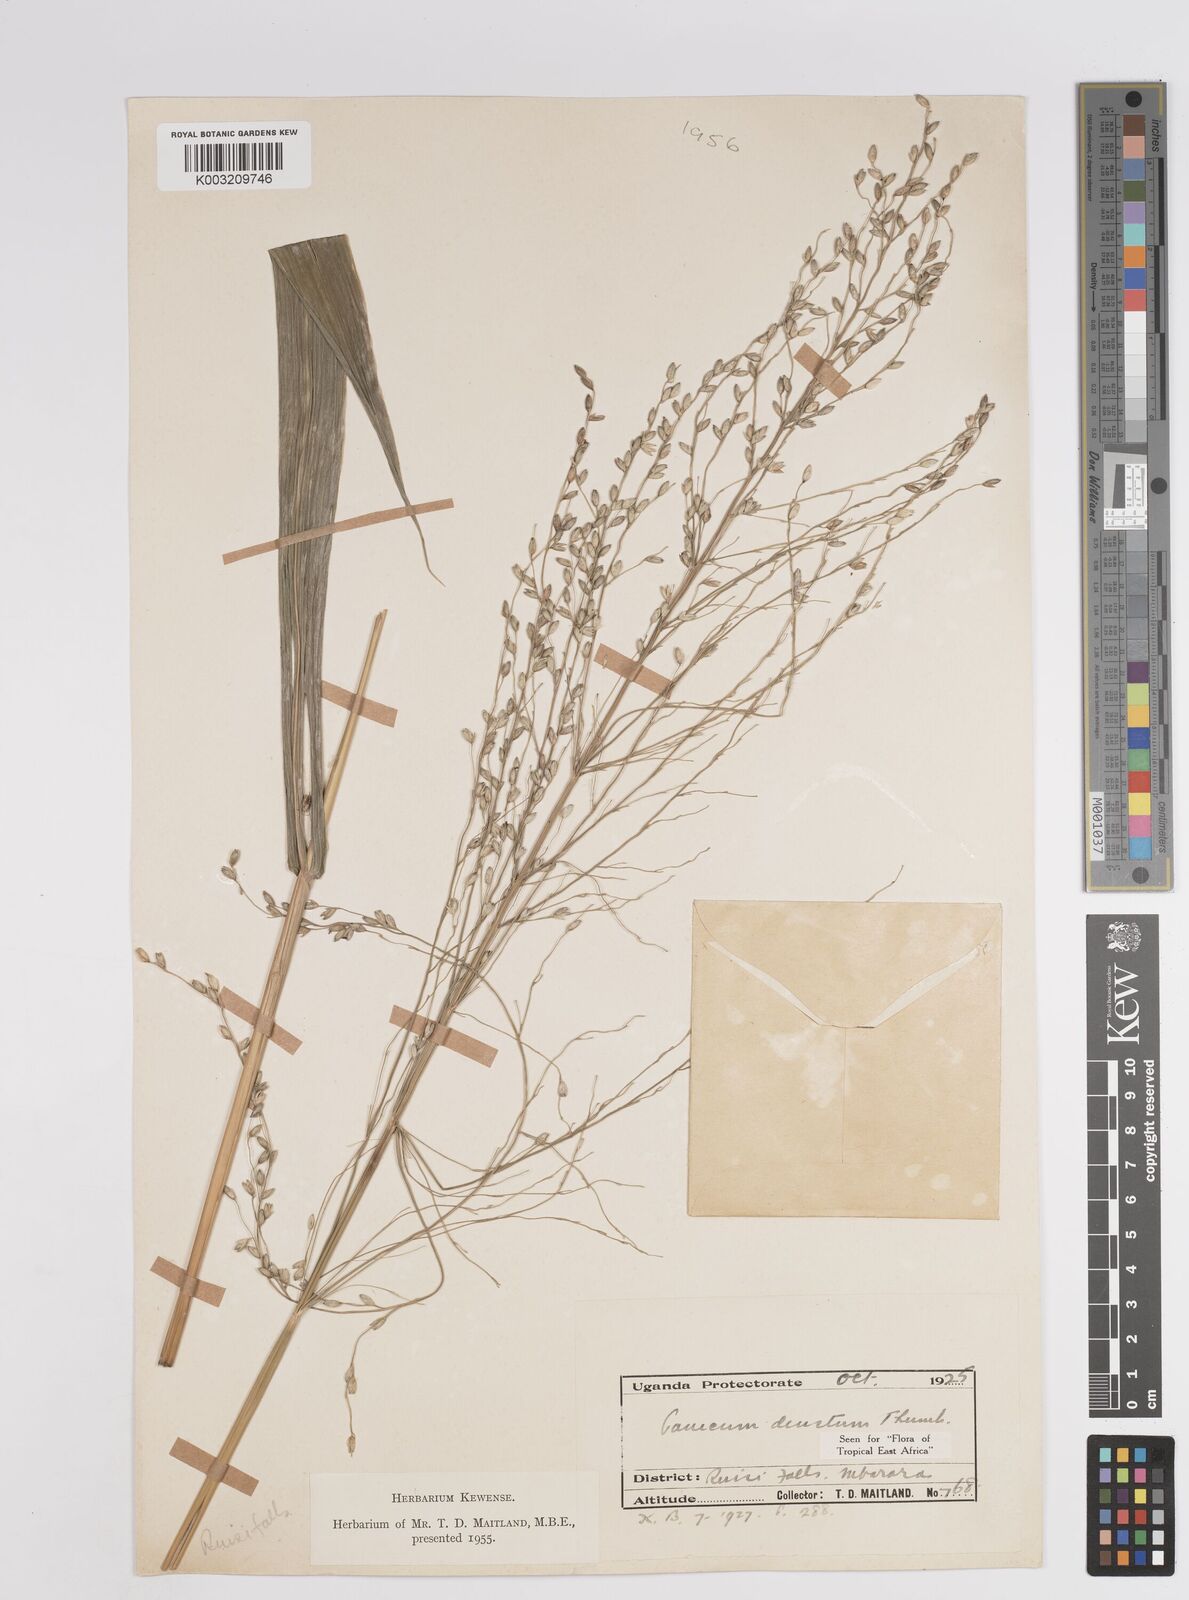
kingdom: Plantae
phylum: Tracheophyta
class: Liliopsida
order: Poales
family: Poaceae
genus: Panicum
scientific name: Panicum
